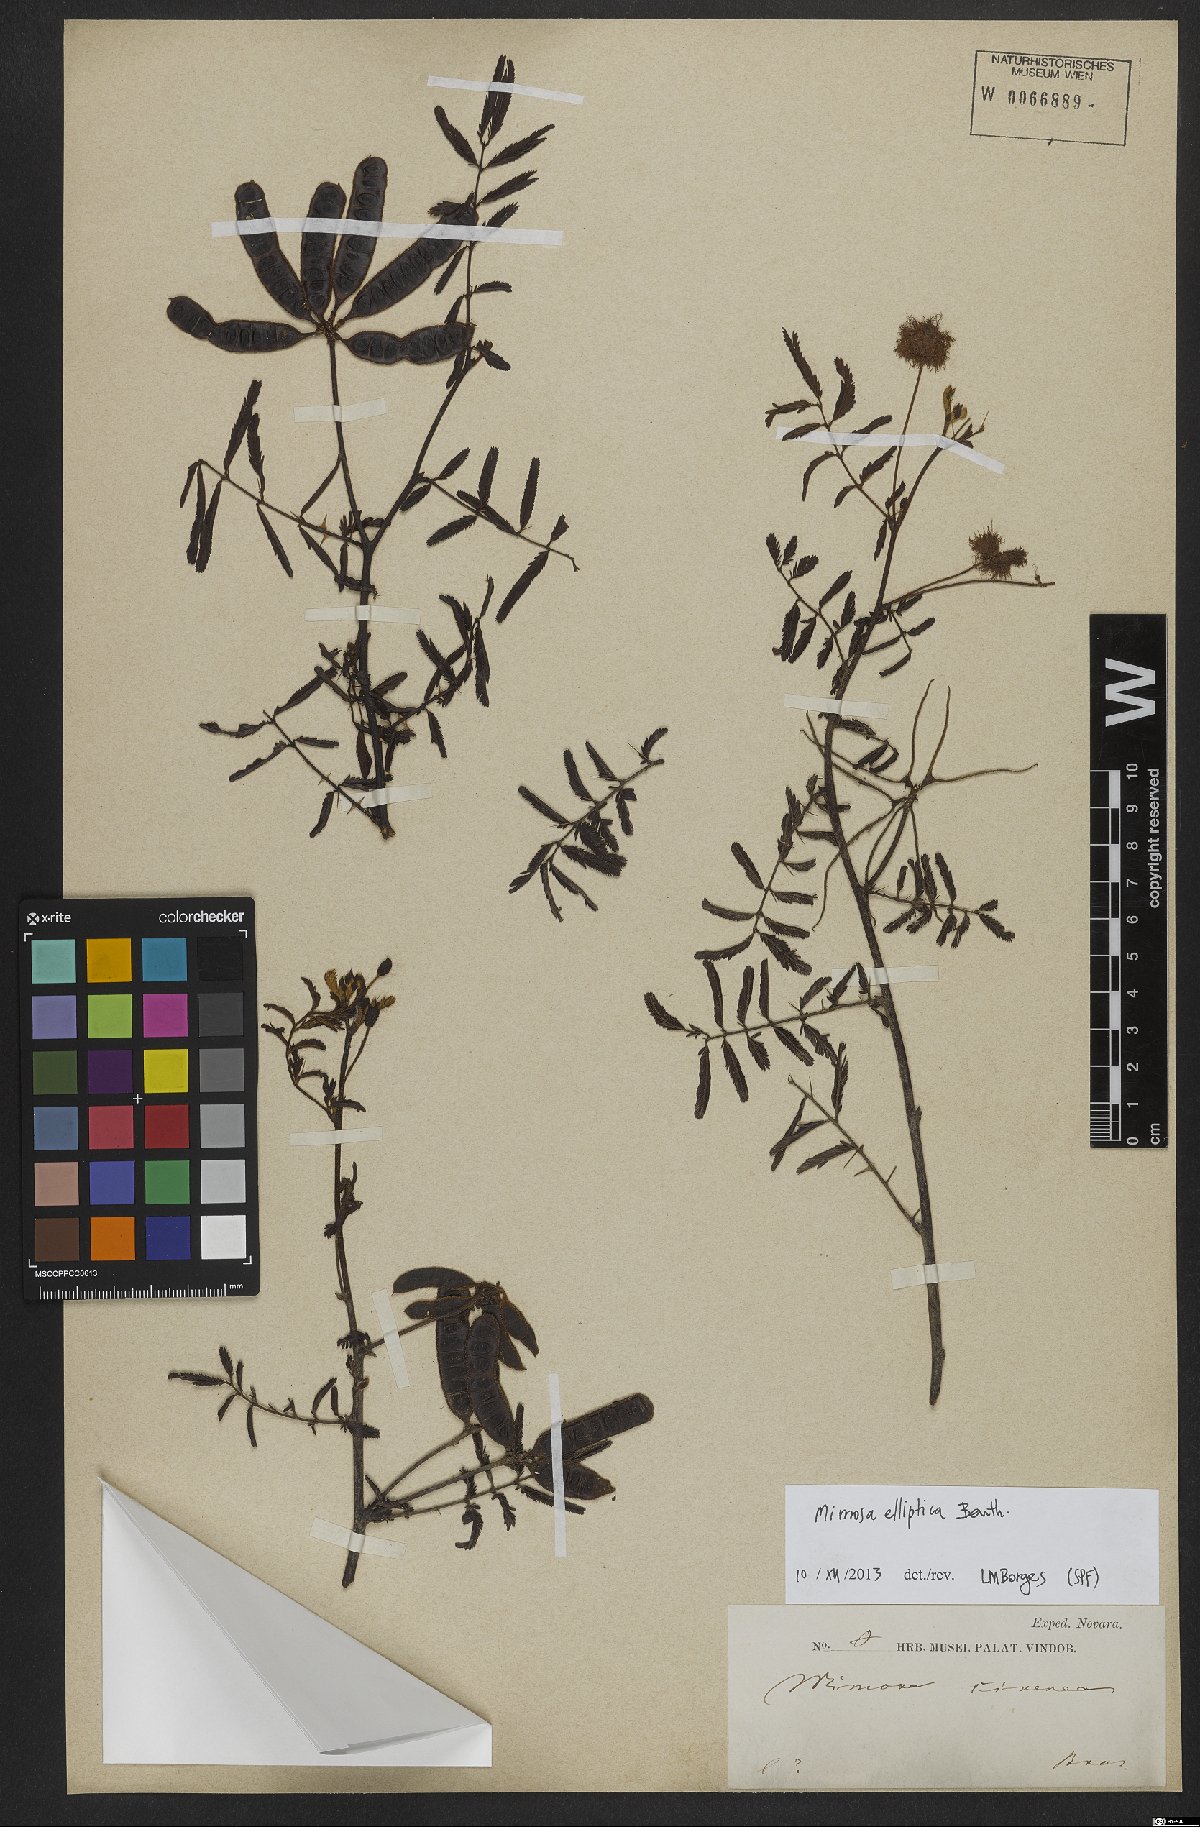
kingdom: Plantae
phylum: Tracheophyta
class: Magnoliopsida
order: Fabales
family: Fabaceae
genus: Mimosa
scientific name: Mimosa elliptica
